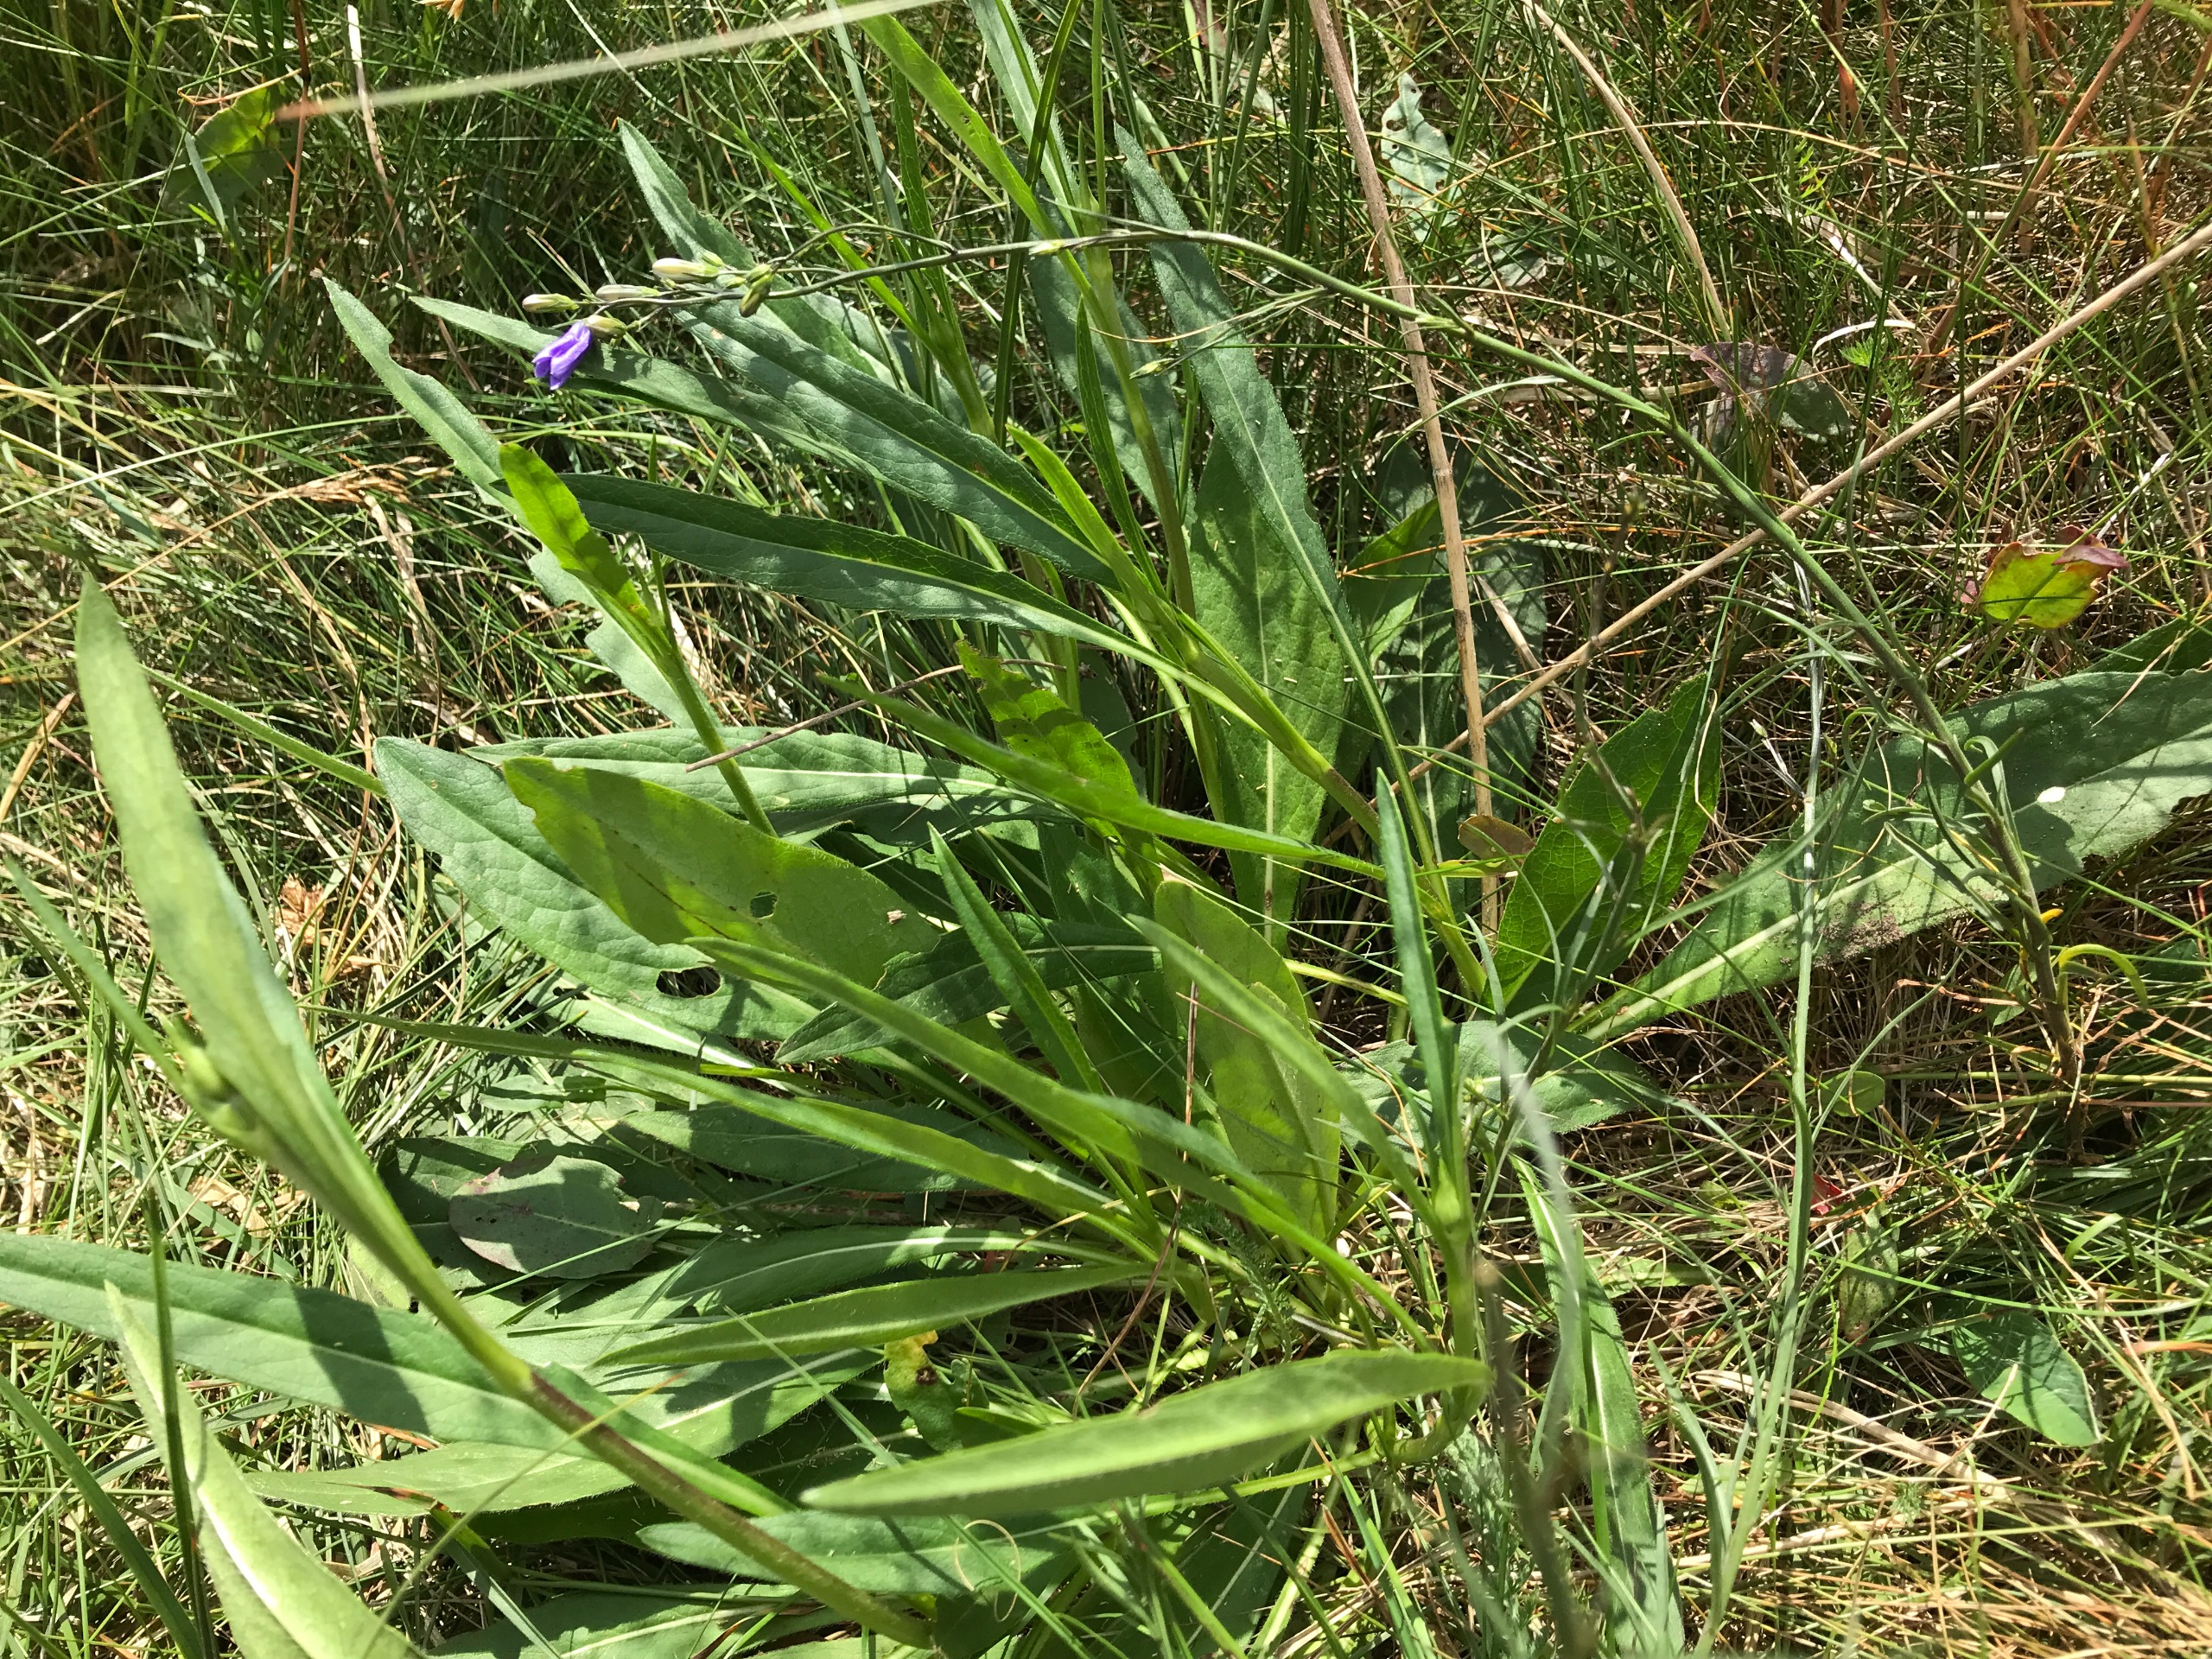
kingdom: Plantae
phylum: Tracheophyta
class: Magnoliopsida
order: Asterales
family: Campanulaceae
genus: Campanula
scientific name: Campanula rotundifolia
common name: Liden klokke
